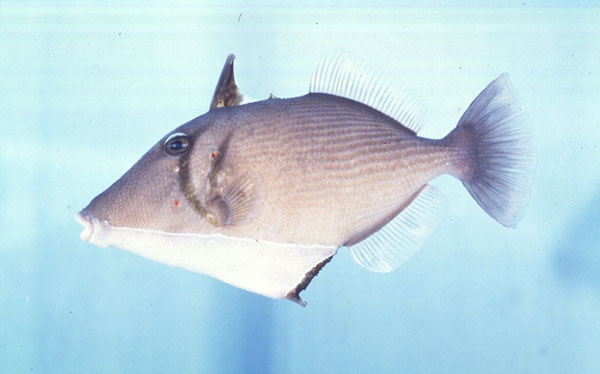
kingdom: Animalia
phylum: Chordata
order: Tetraodontiformes
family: Balistidae
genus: Sufflamen
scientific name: Sufflamen bursa
